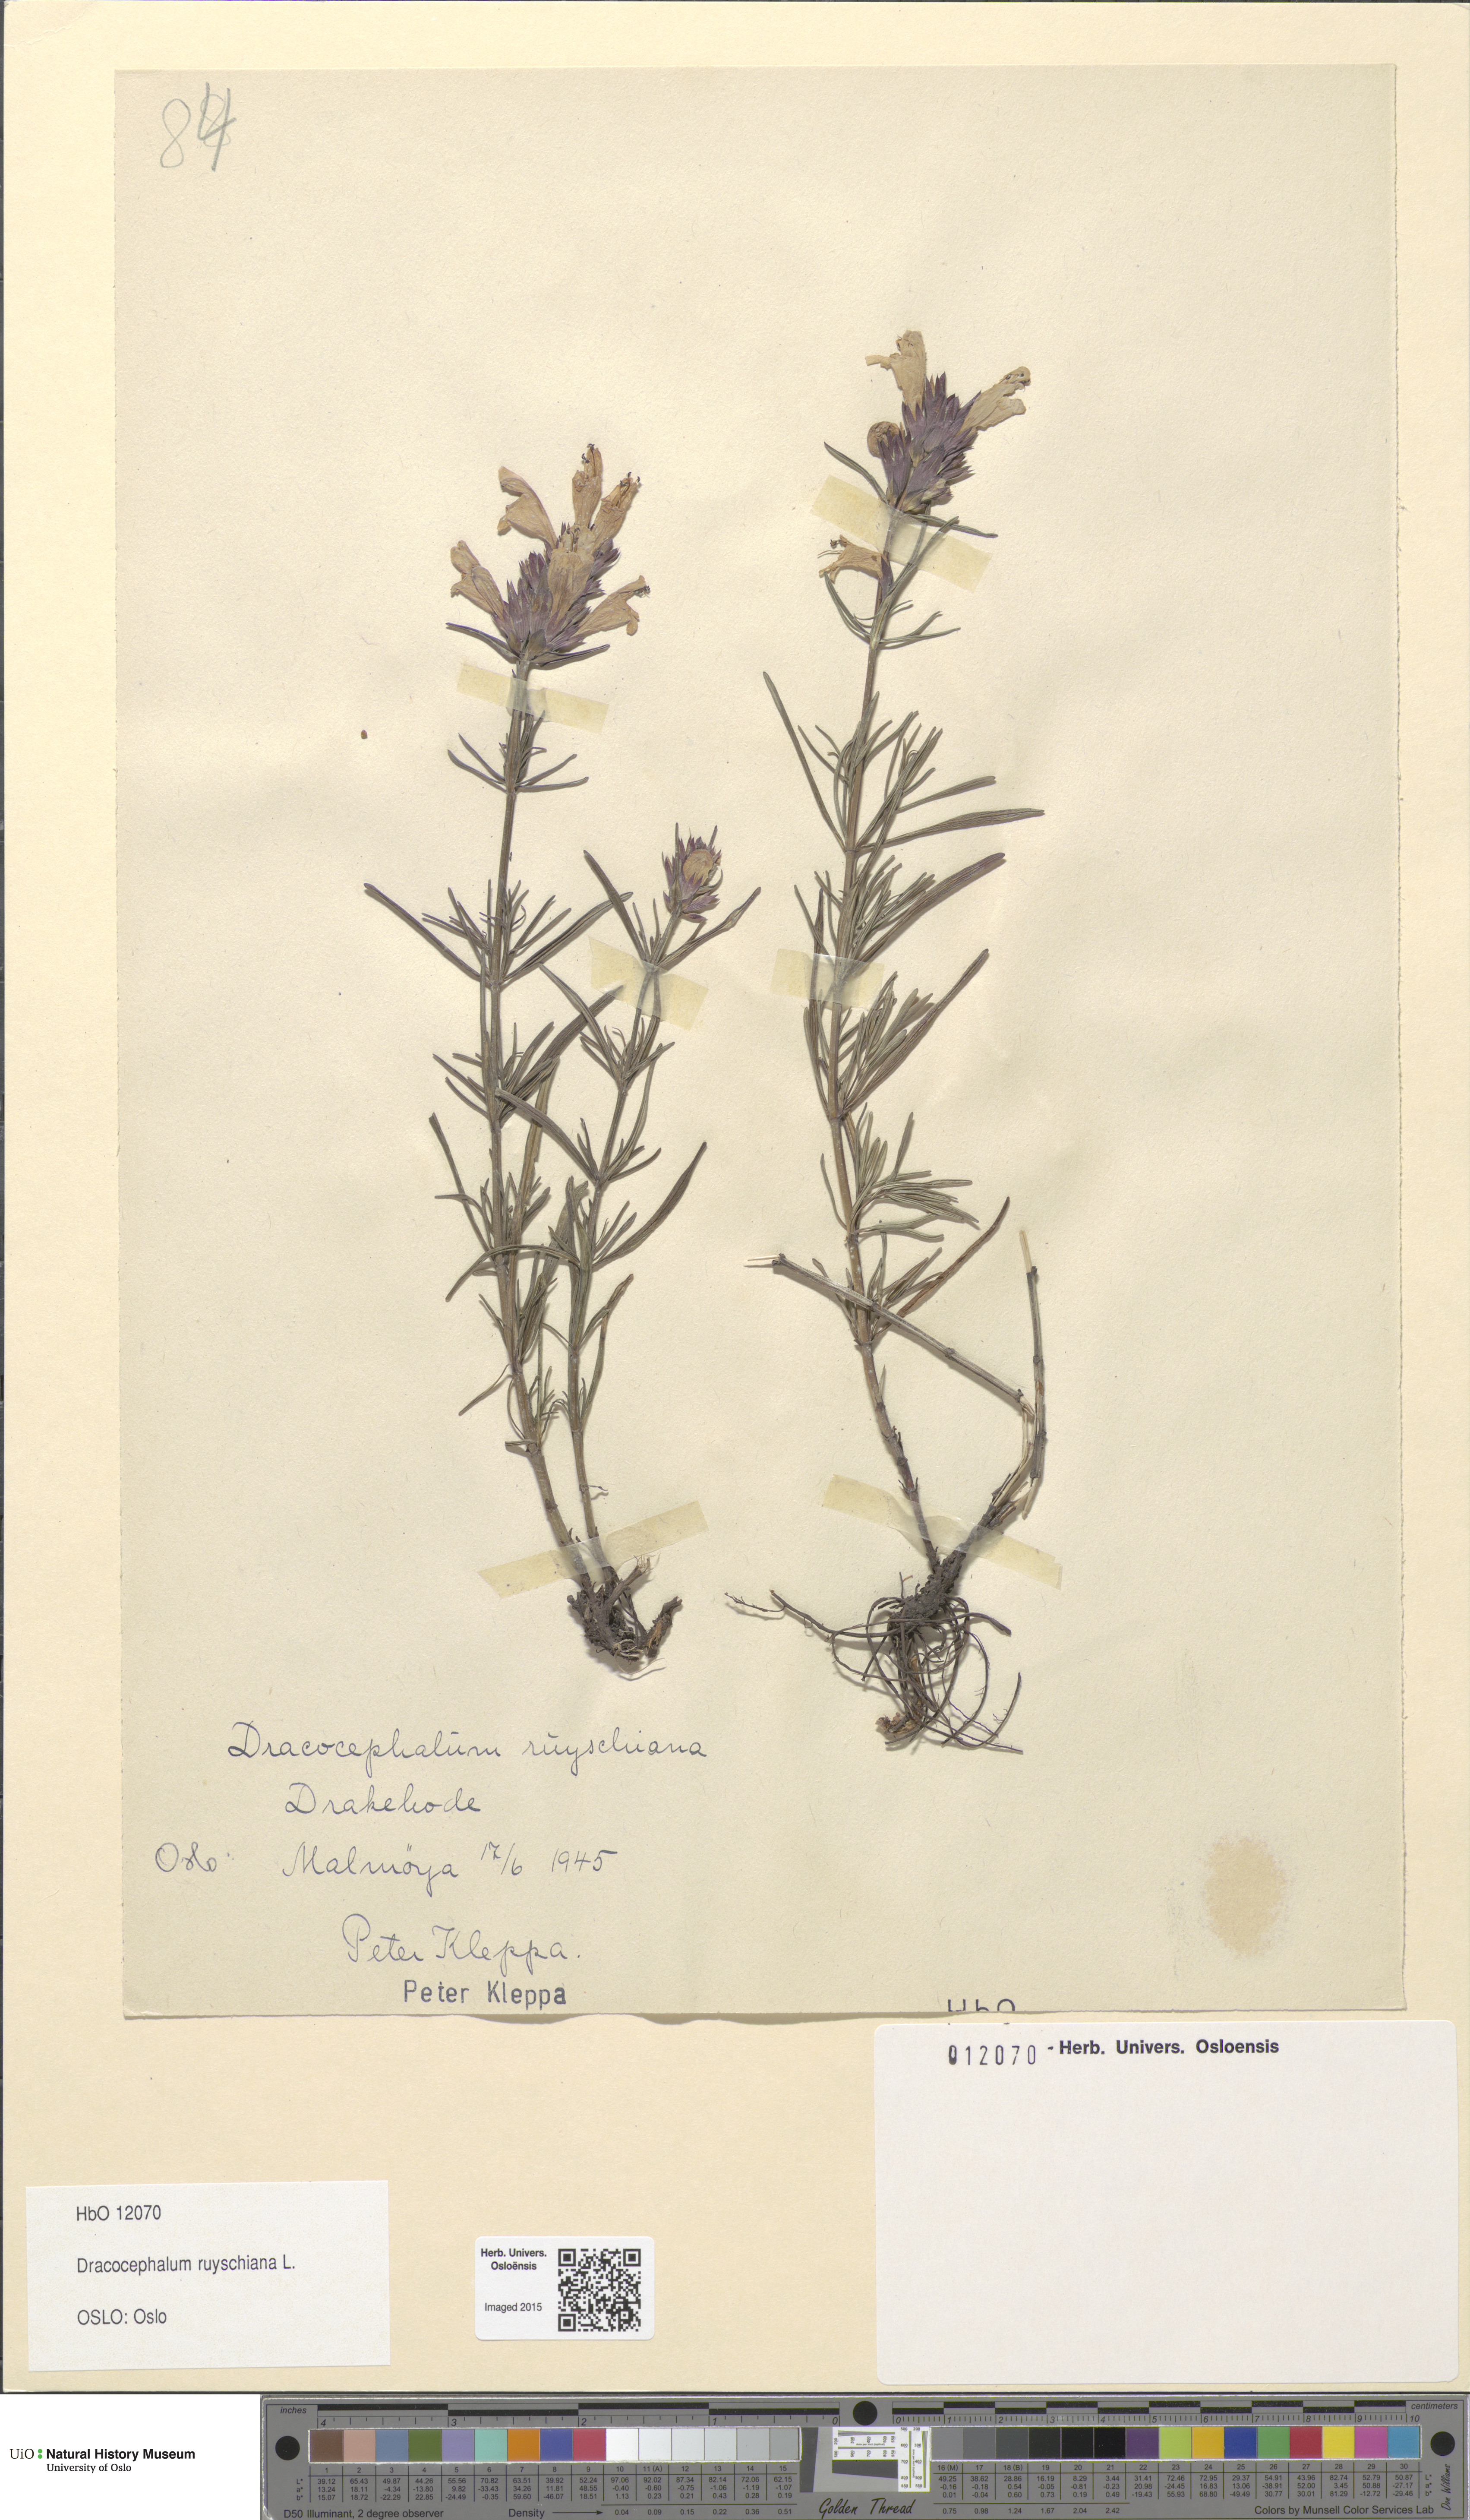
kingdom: Plantae
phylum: Tracheophyta
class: Magnoliopsida
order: Lamiales
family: Lamiaceae
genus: Dracocephalum
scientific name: Dracocephalum ruyschiana
